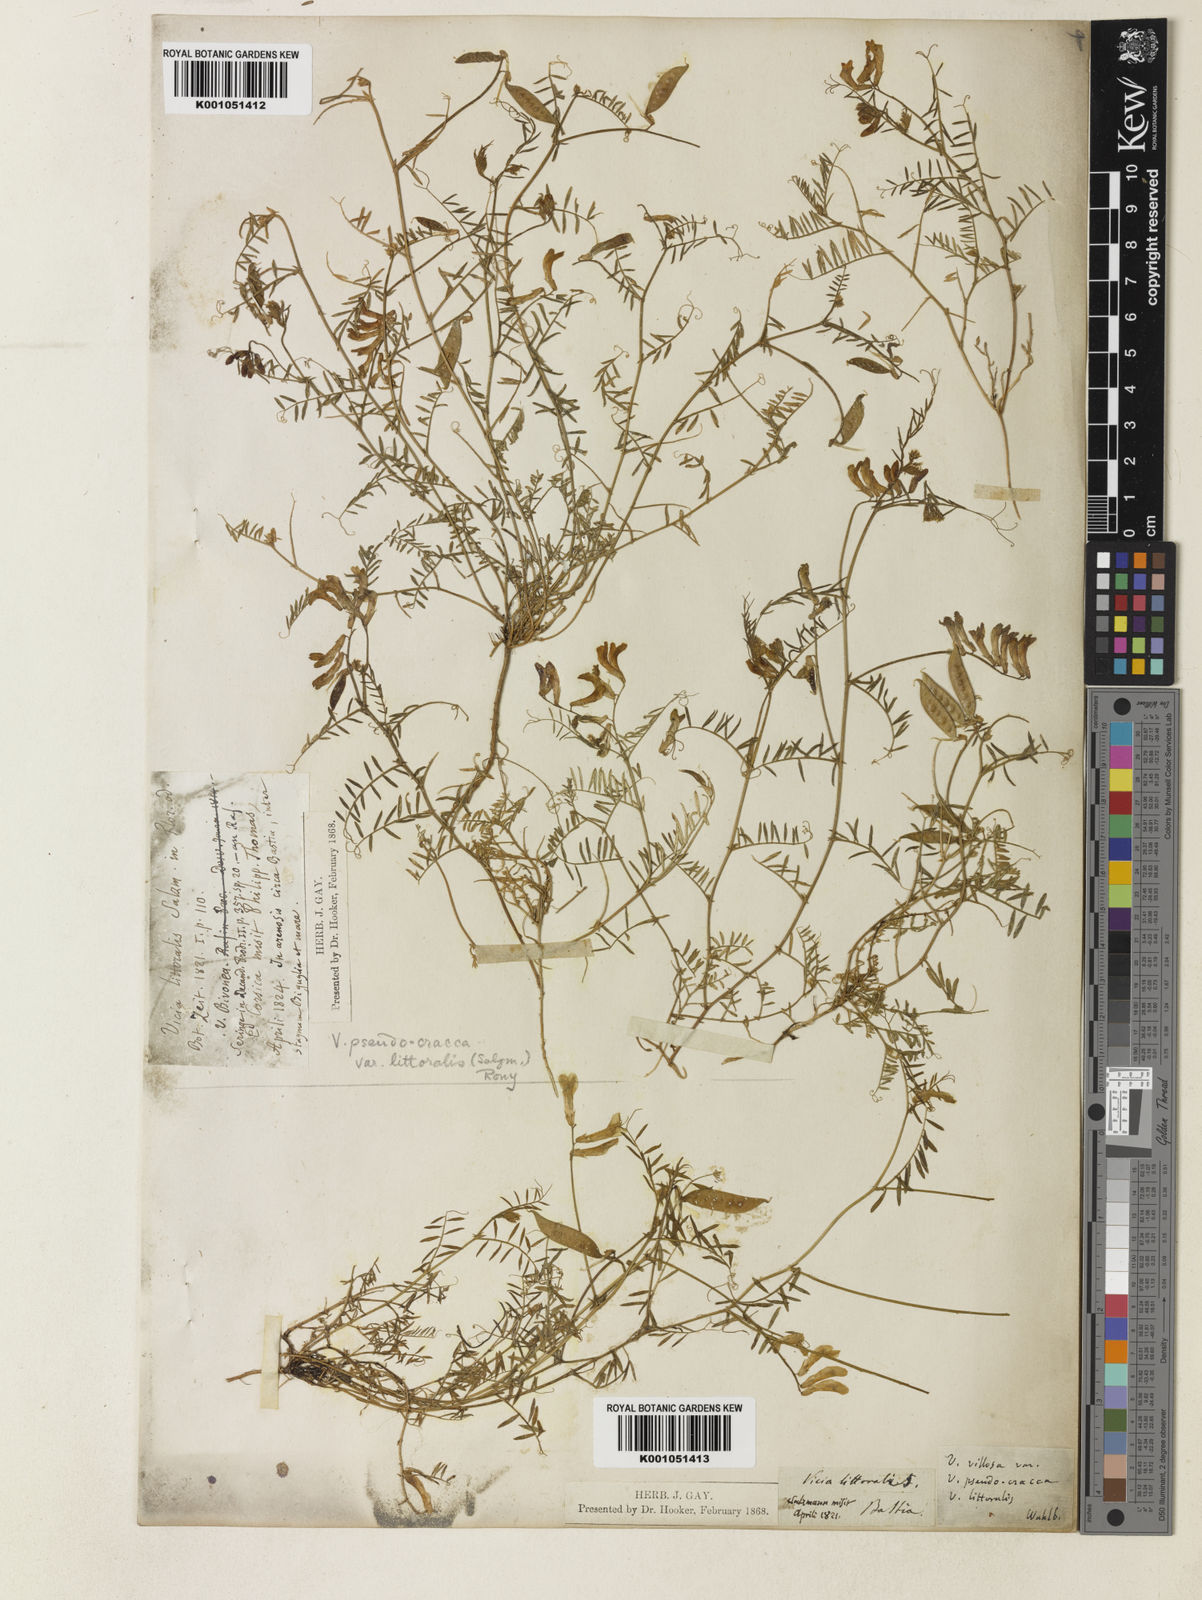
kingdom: Plantae
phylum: Tracheophyta
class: Magnoliopsida
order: Fabales
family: Fabaceae
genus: Vicia
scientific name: Vicia villosa
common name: Fodder vetch
